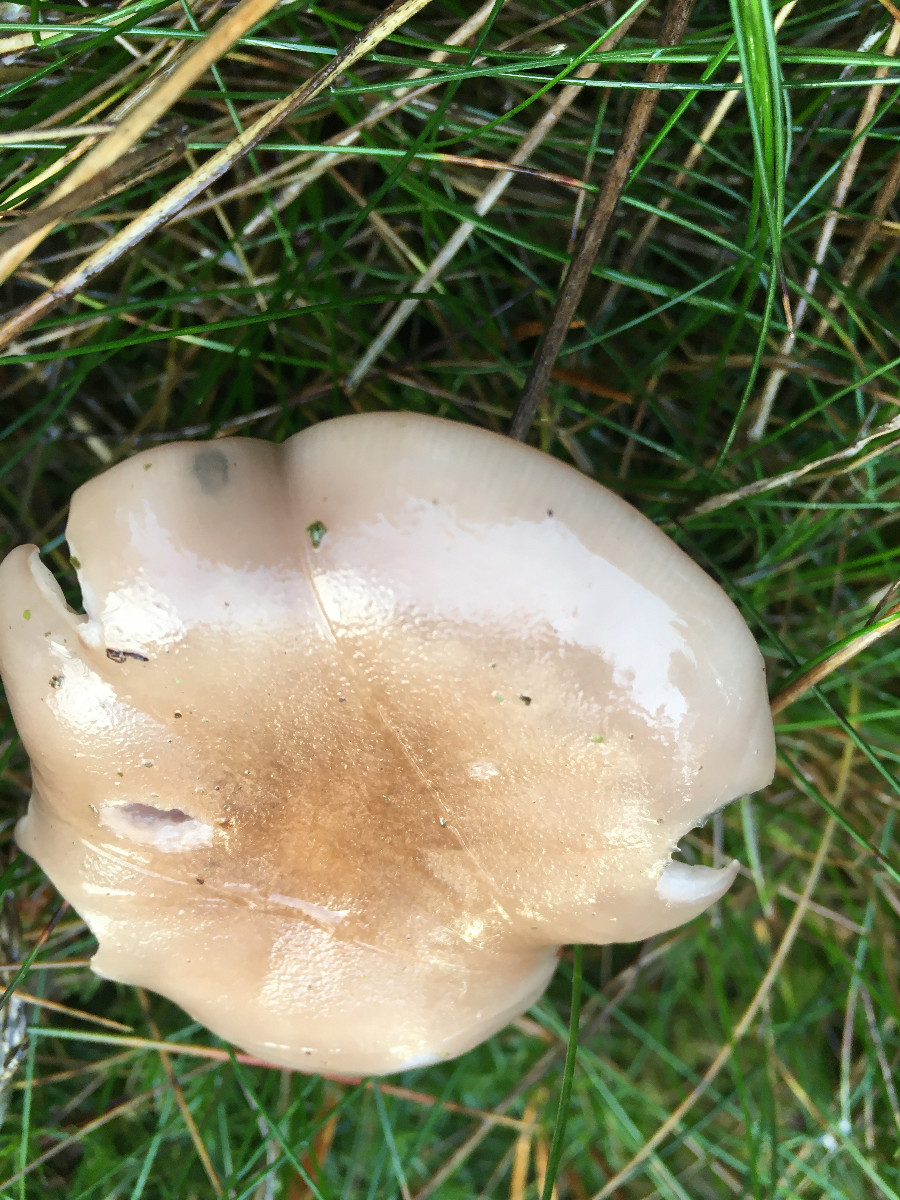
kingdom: Fungi
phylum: Basidiomycota
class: Agaricomycetes
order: Agaricales
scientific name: Agaricales
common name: champignonordenen
